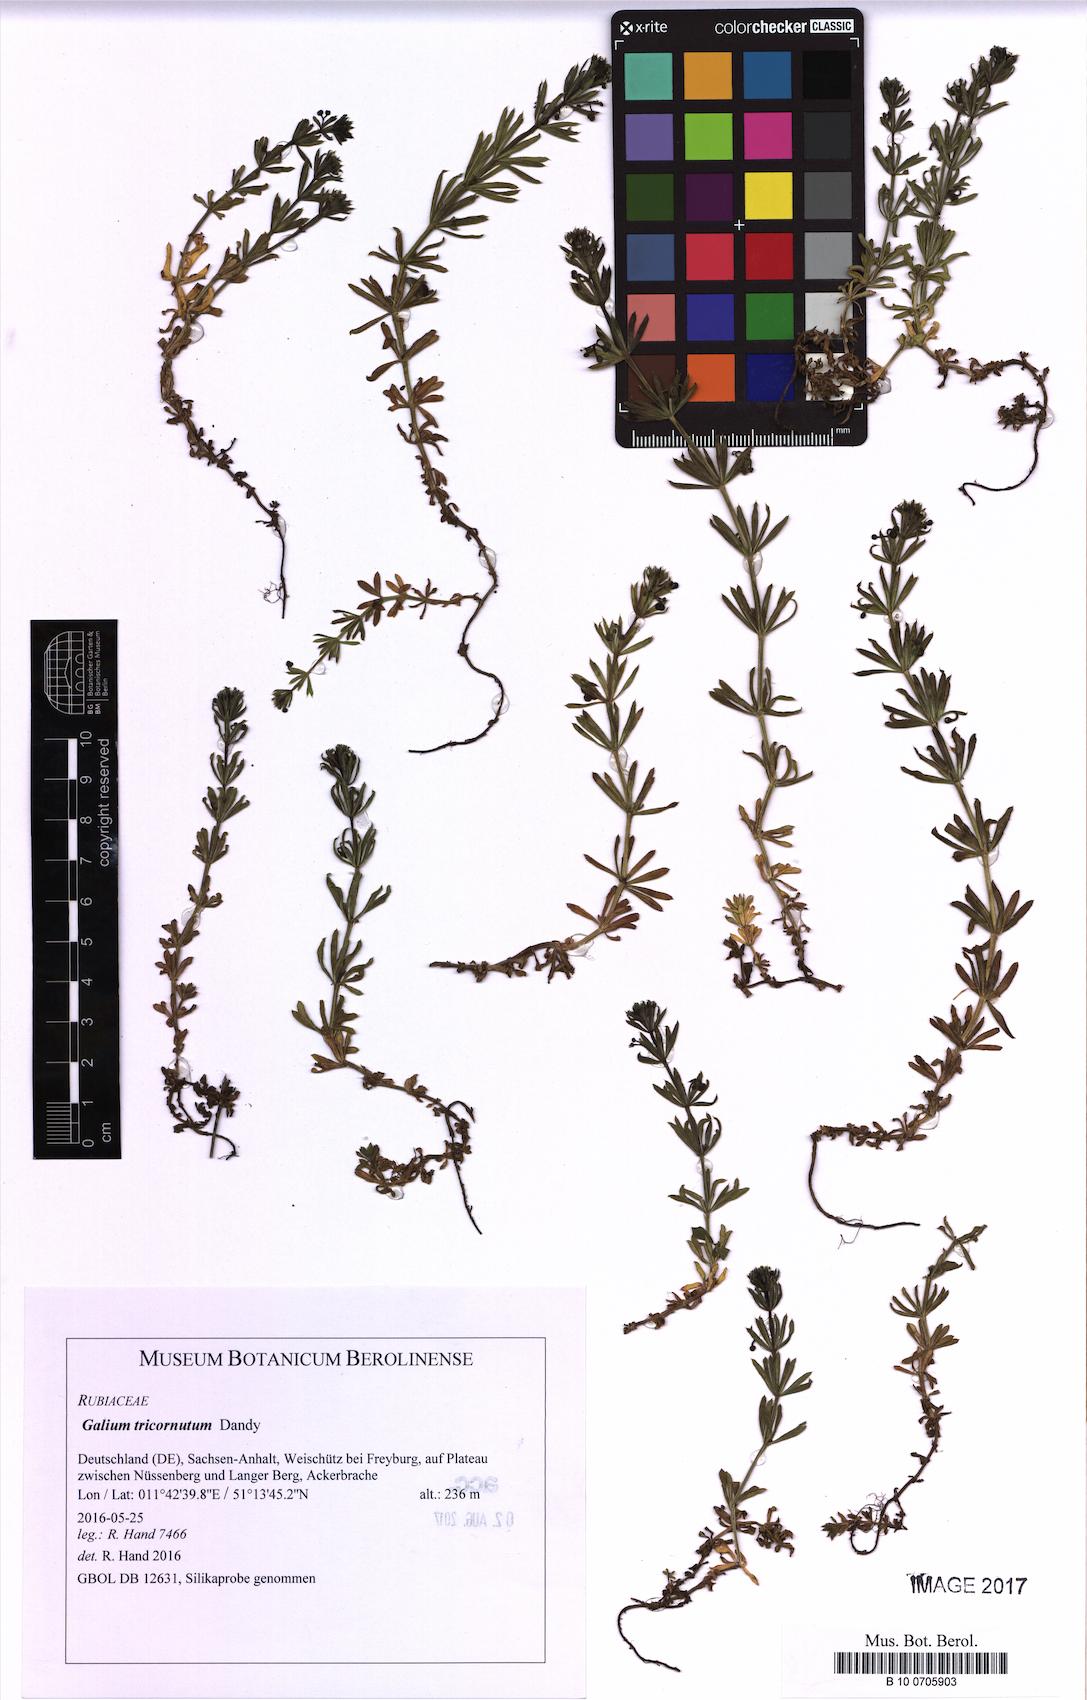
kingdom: Plantae
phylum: Tracheophyta
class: Magnoliopsida
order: Gentianales
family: Rubiaceae
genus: Galium
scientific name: Galium tricornutum
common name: Corn cleavers
